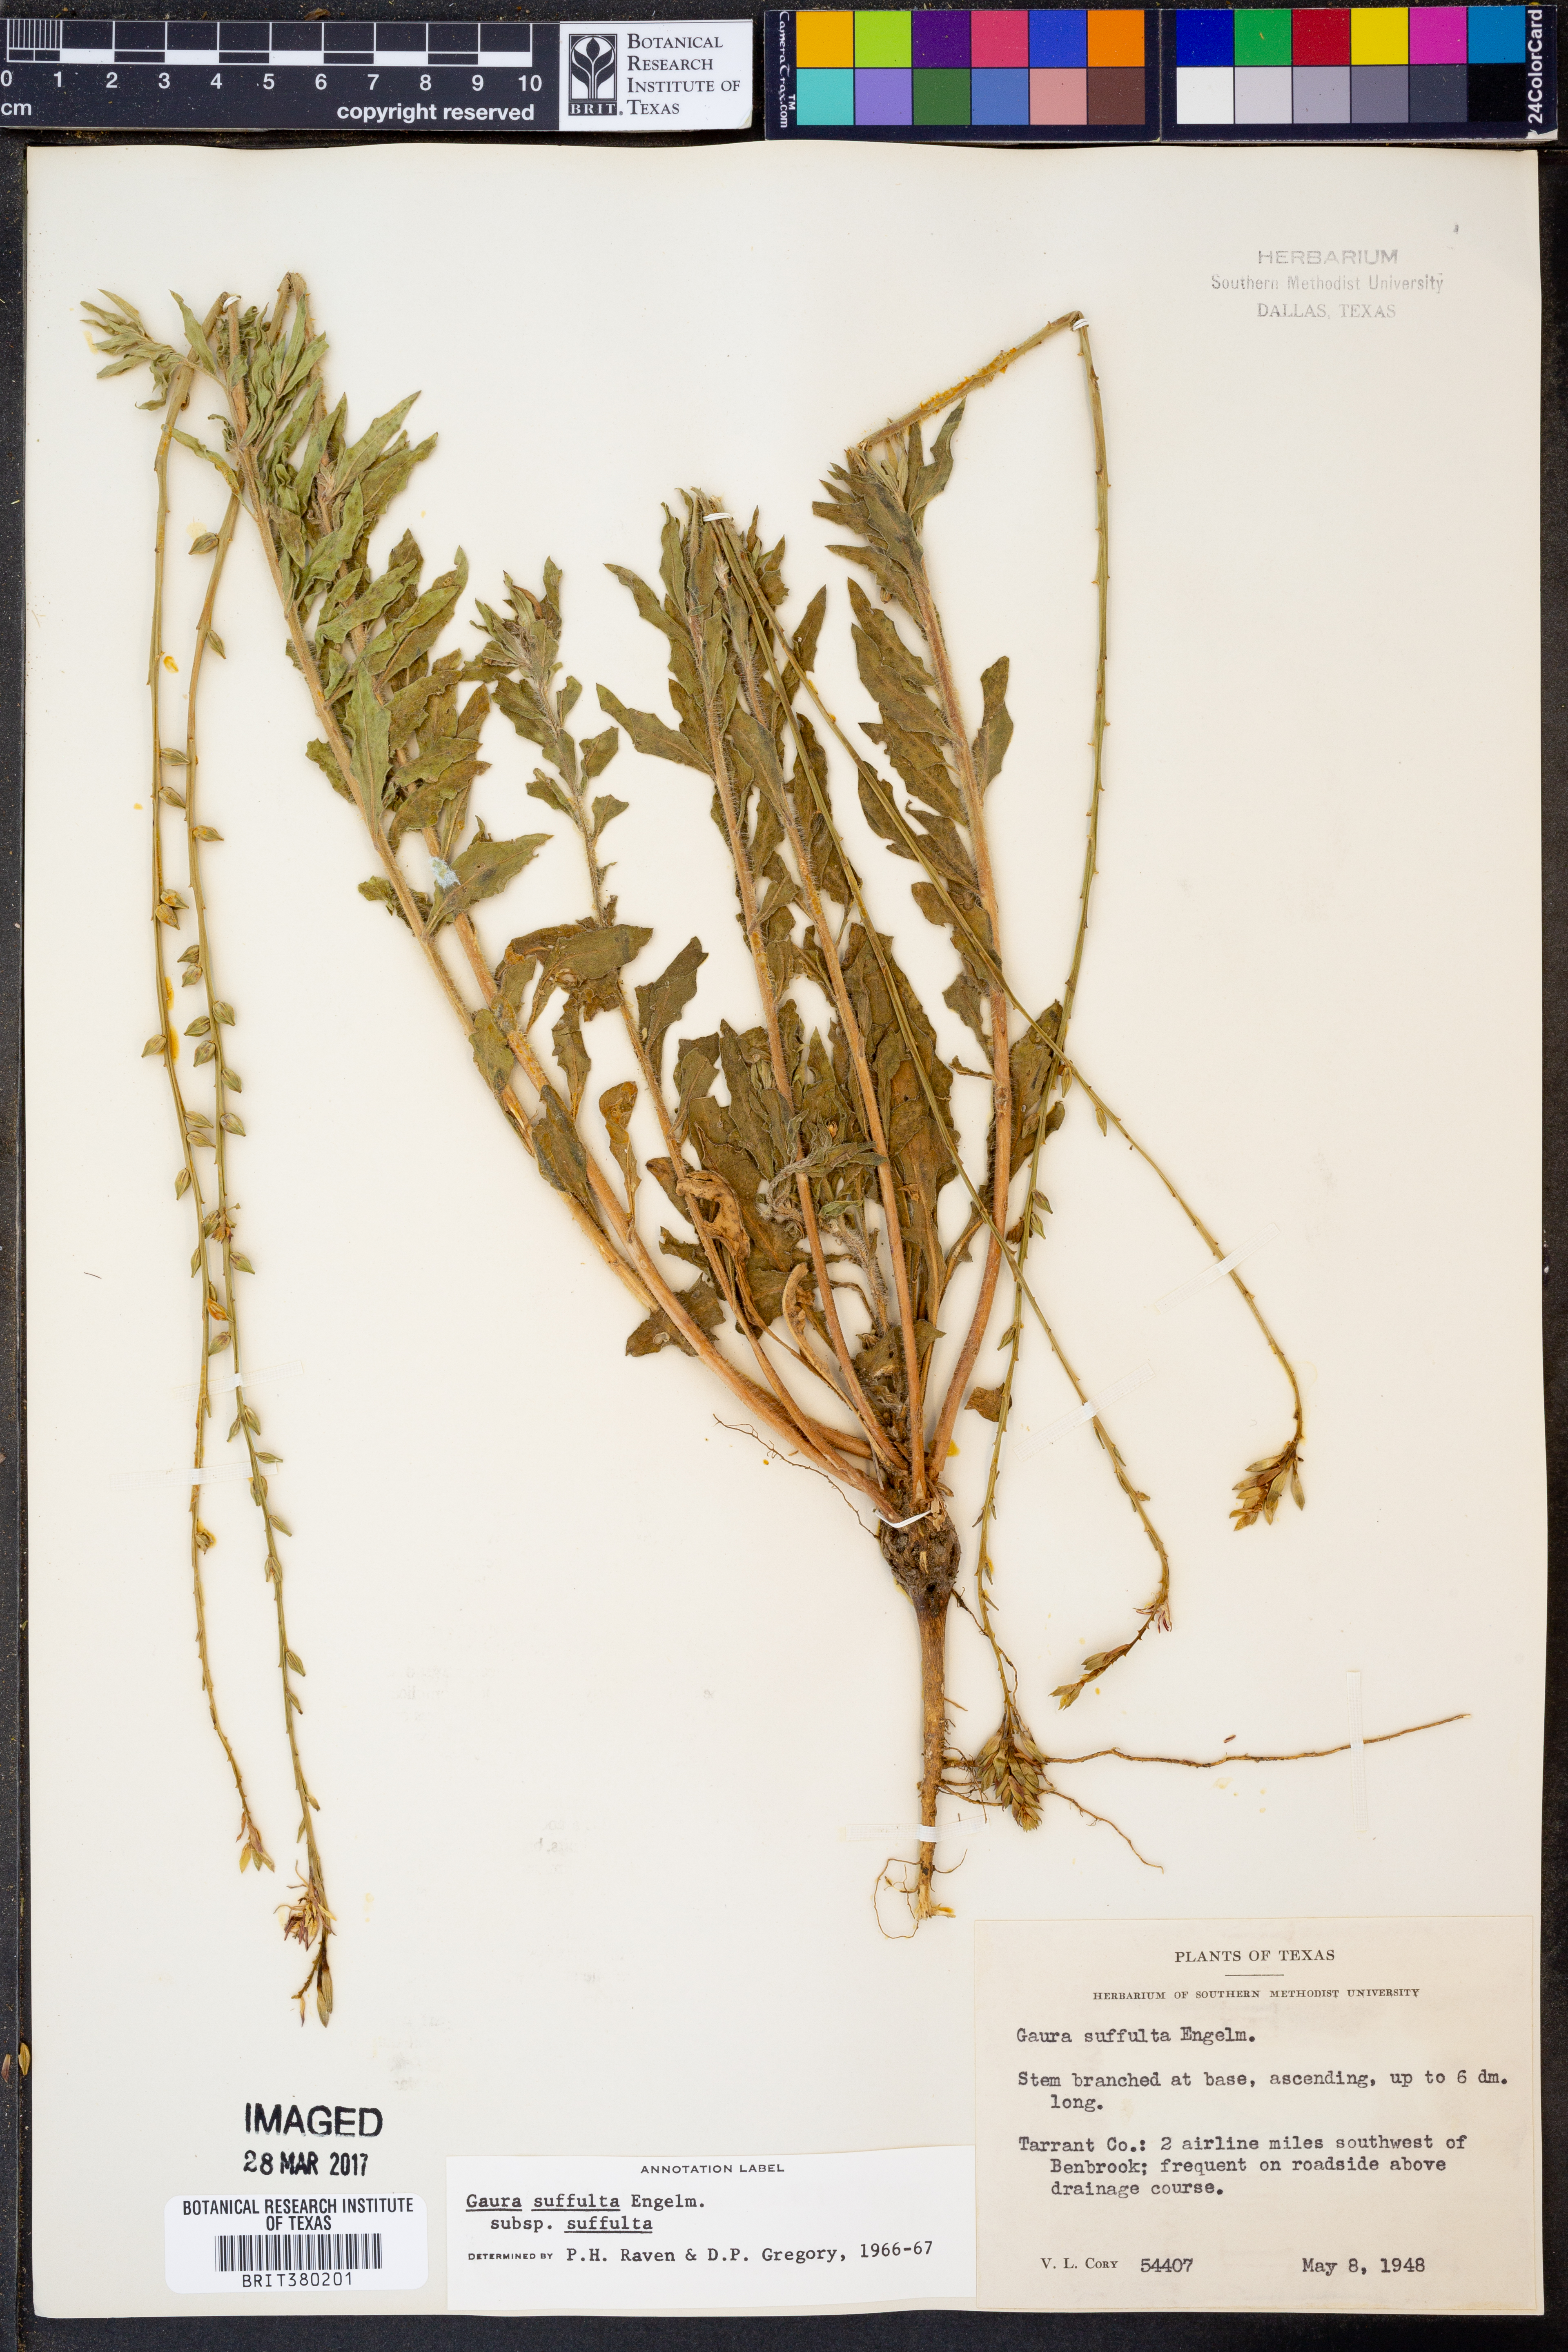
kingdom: Plantae
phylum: Tracheophyta
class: Magnoliopsida
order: Myrtales
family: Onagraceae
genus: Oenothera
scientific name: Oenothera suffulta
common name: Kisses
